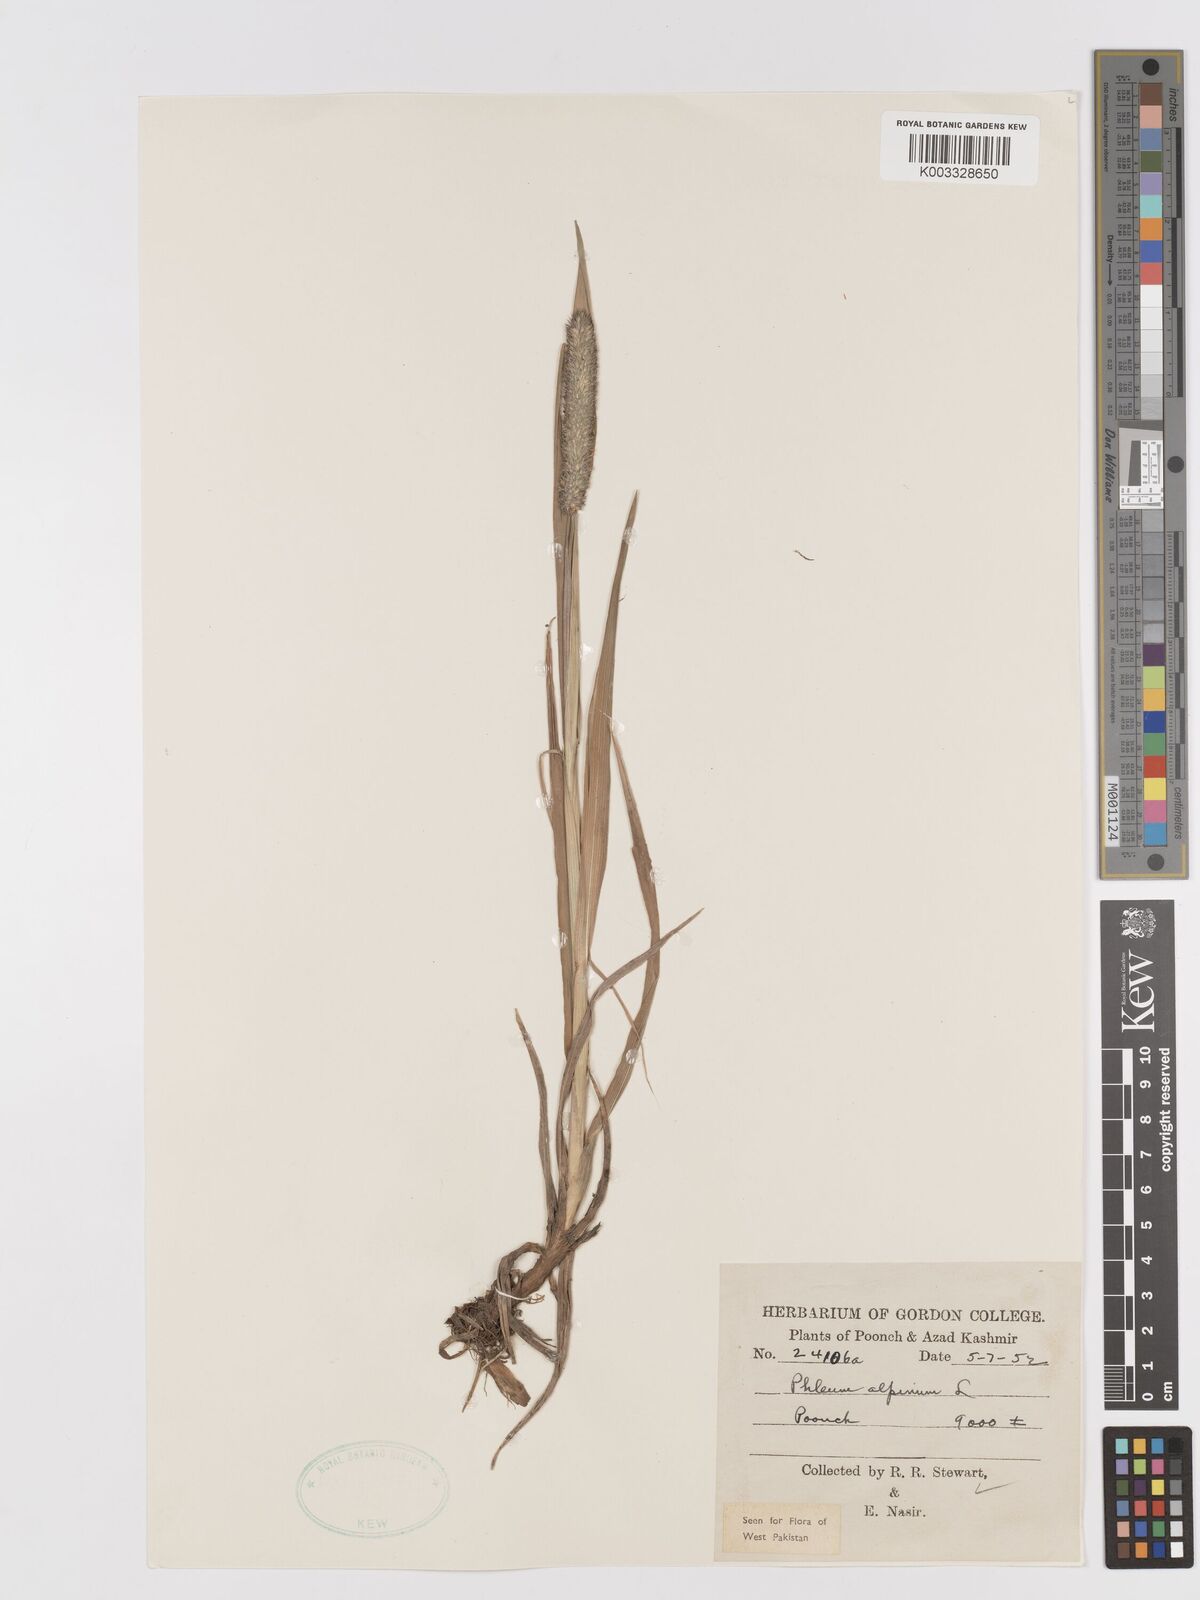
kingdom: Plantae
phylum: Tracheophyta
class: Liliopsida
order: Poales
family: Poaceae
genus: Phleum
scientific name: Phleum alpinum
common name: Alpine cat's-tail
